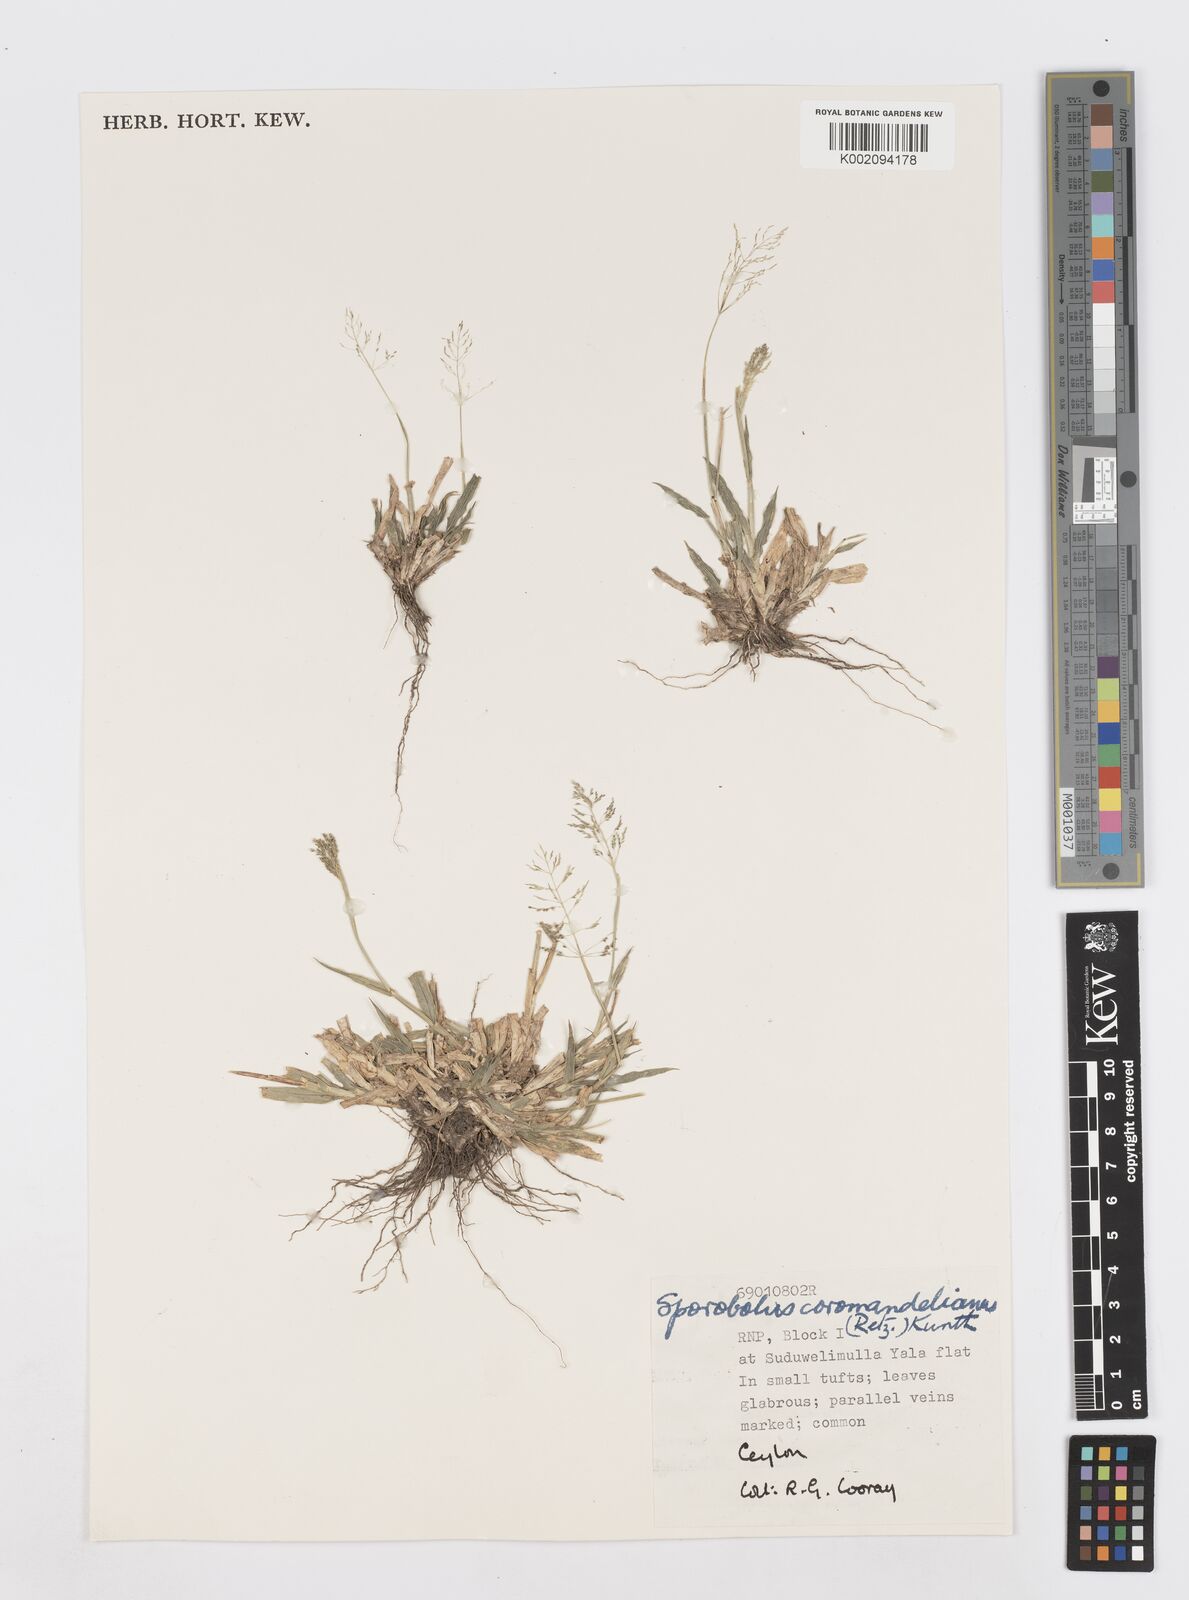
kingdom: Plantae
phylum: Tracheophyta
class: Liliopsida
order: Poales
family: Poaceae
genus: Sporobolus
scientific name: Sporobolus coromandelianus
